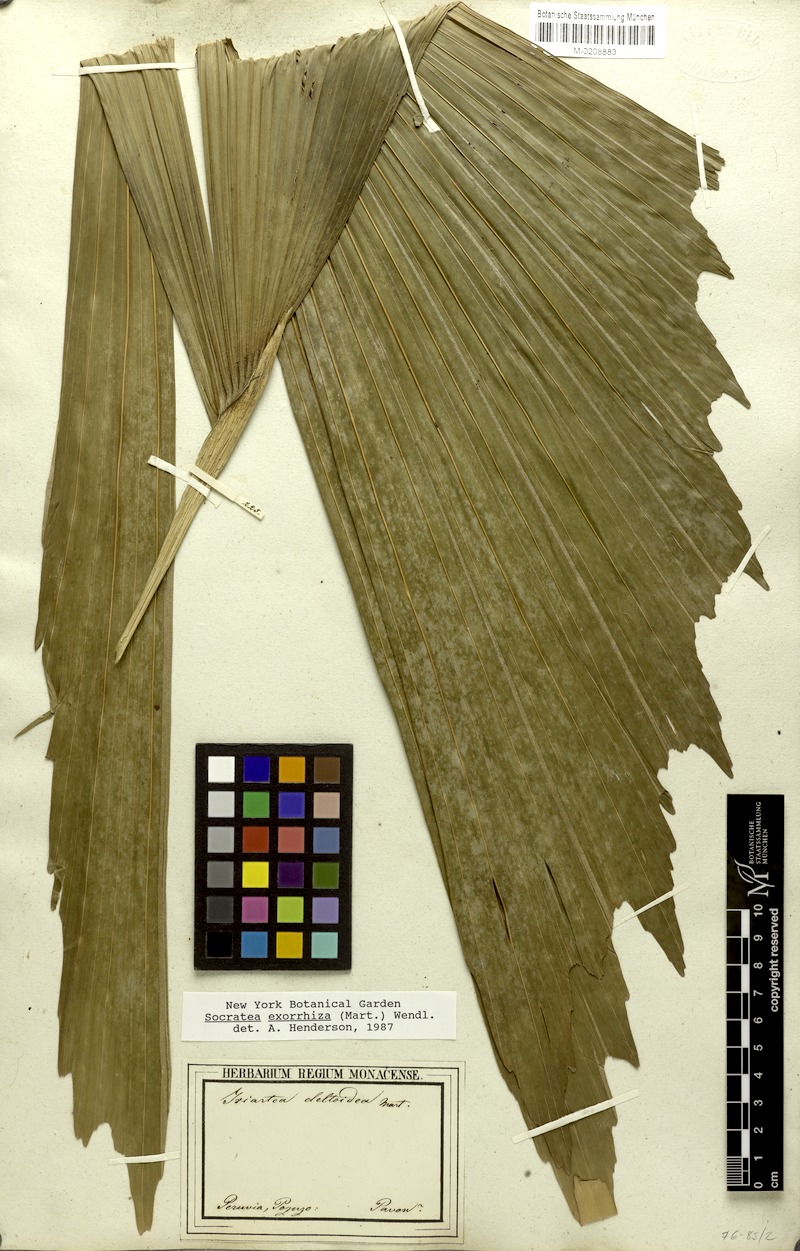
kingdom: Plantae
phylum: Tracheophyta
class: Liliopsida
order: Arecales
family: Arecaceae
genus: Socratea
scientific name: Socratea exorrhiza
